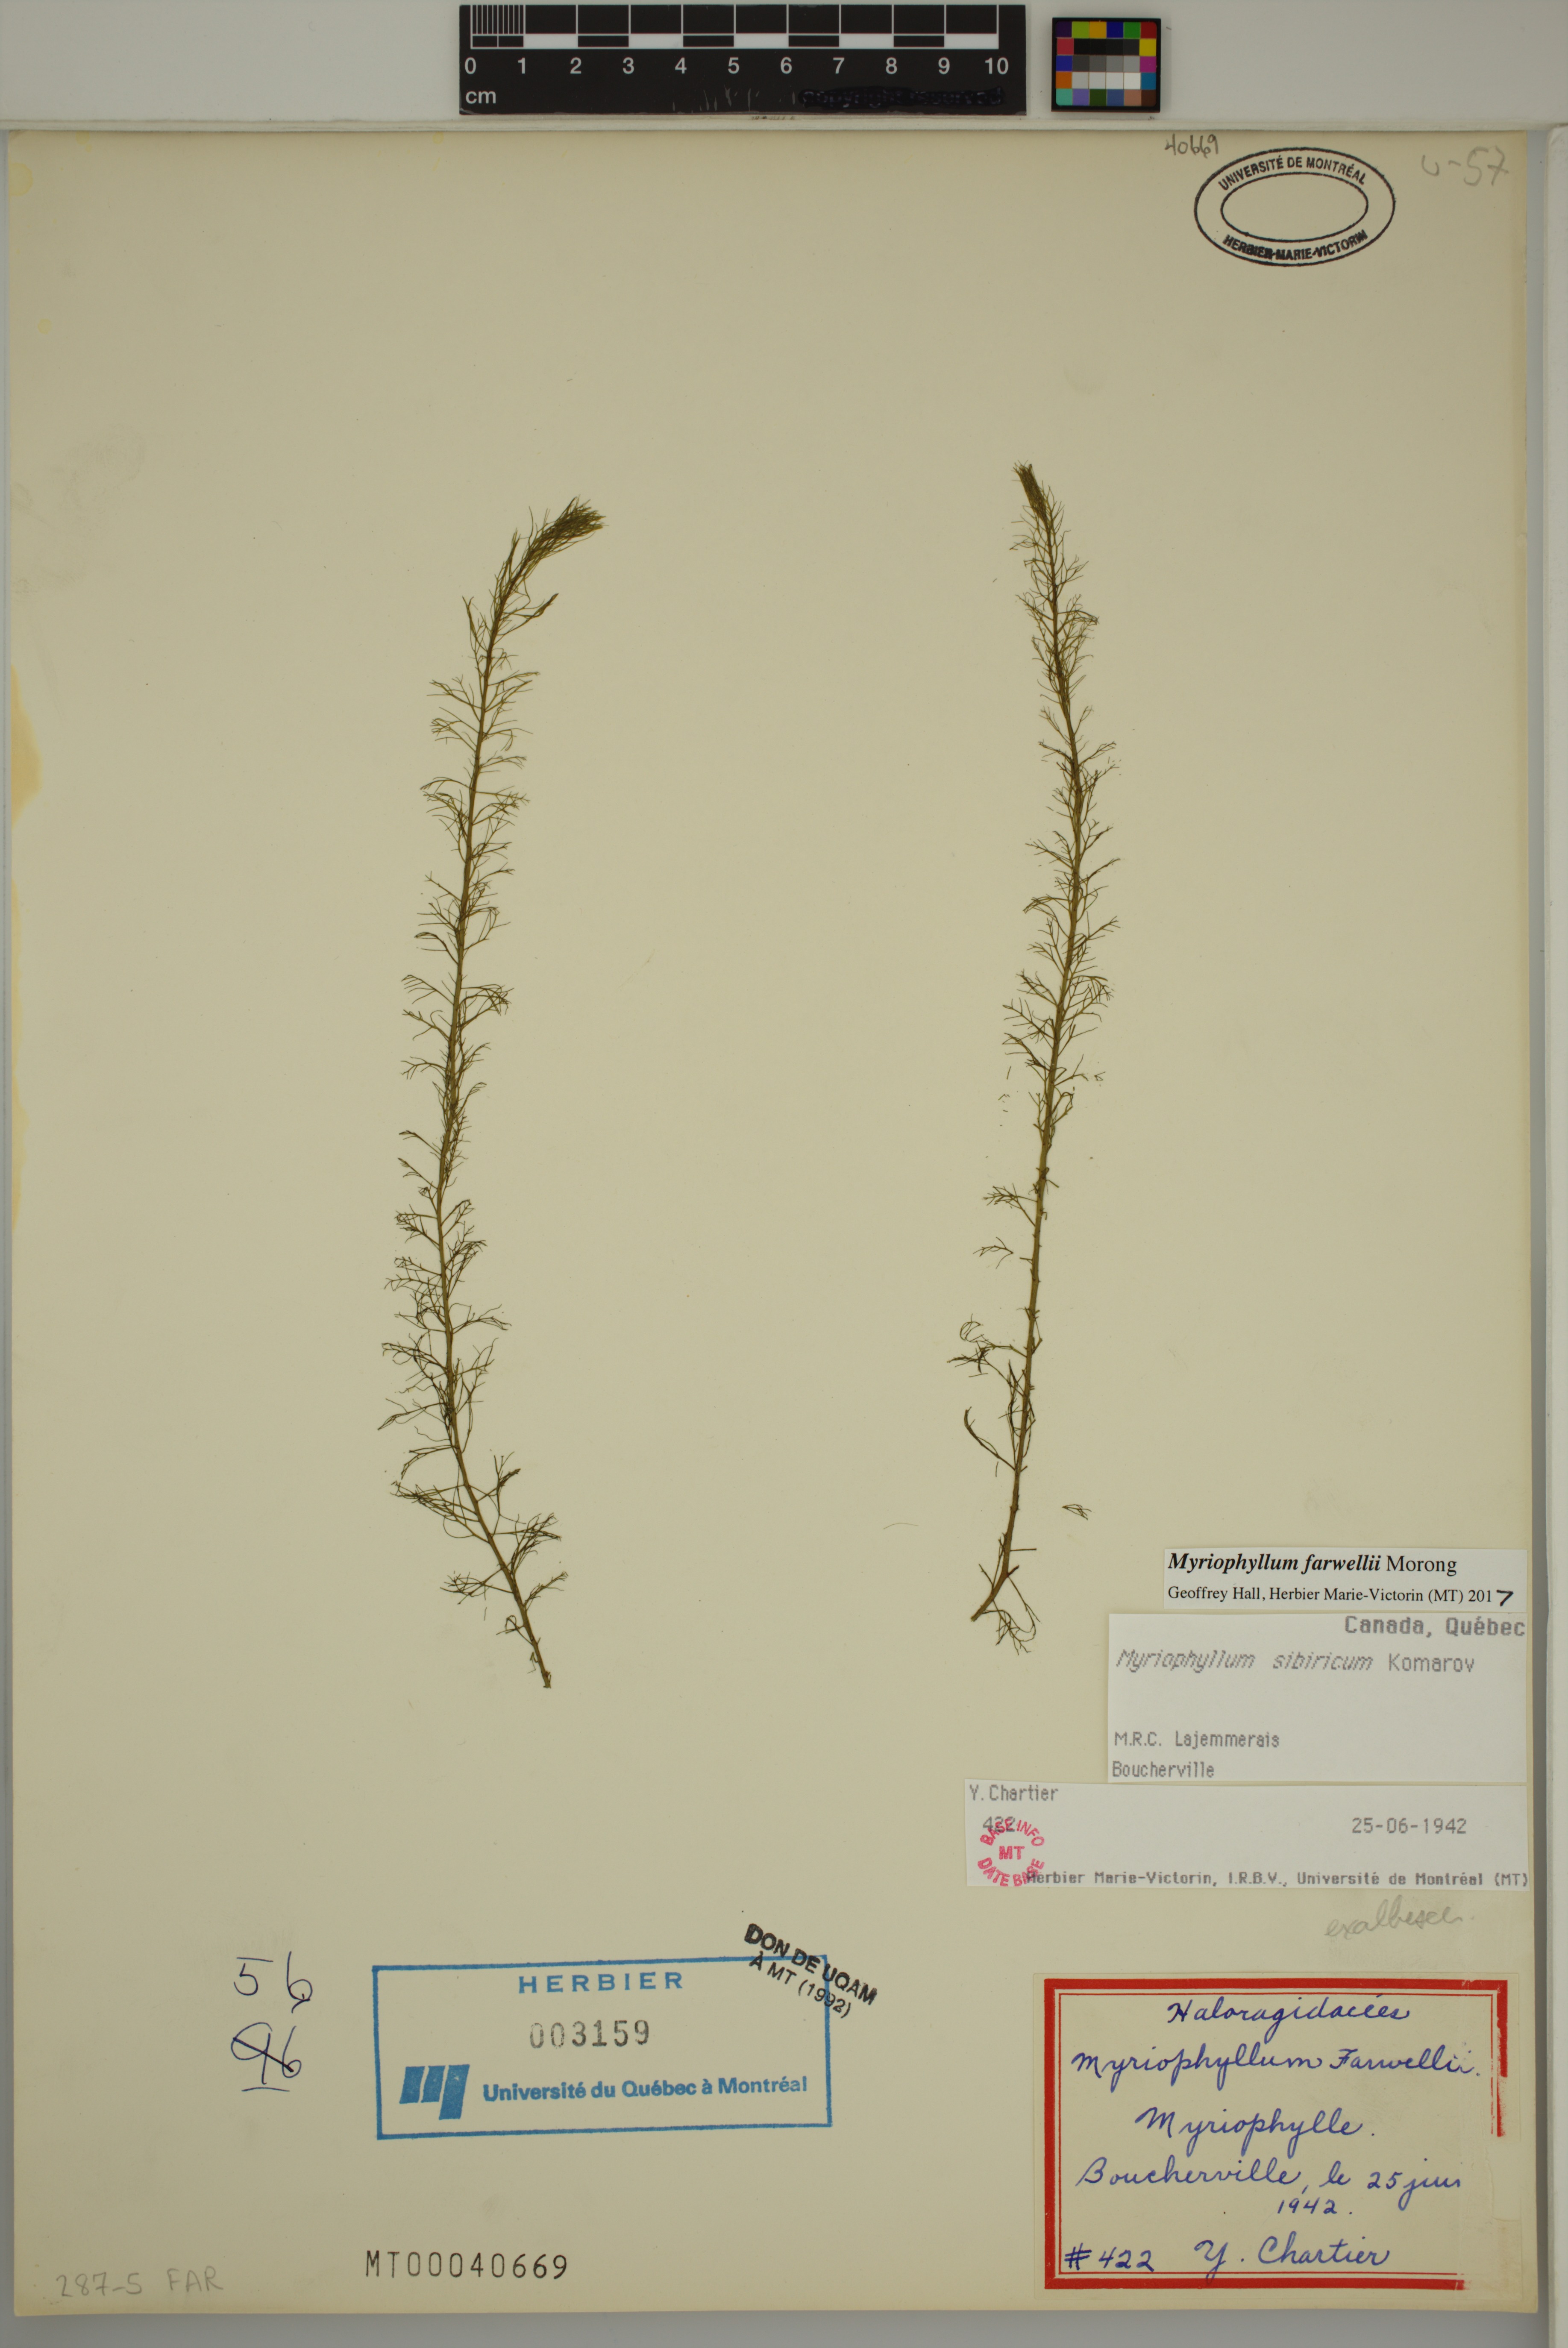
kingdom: Plantae
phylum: Tracheophyta
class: Magnoliopsida
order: Saxifragales
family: Haloragaceae
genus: Myriophyllum
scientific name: Myriophyllum farwellii
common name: Farwell's water-milfoil
